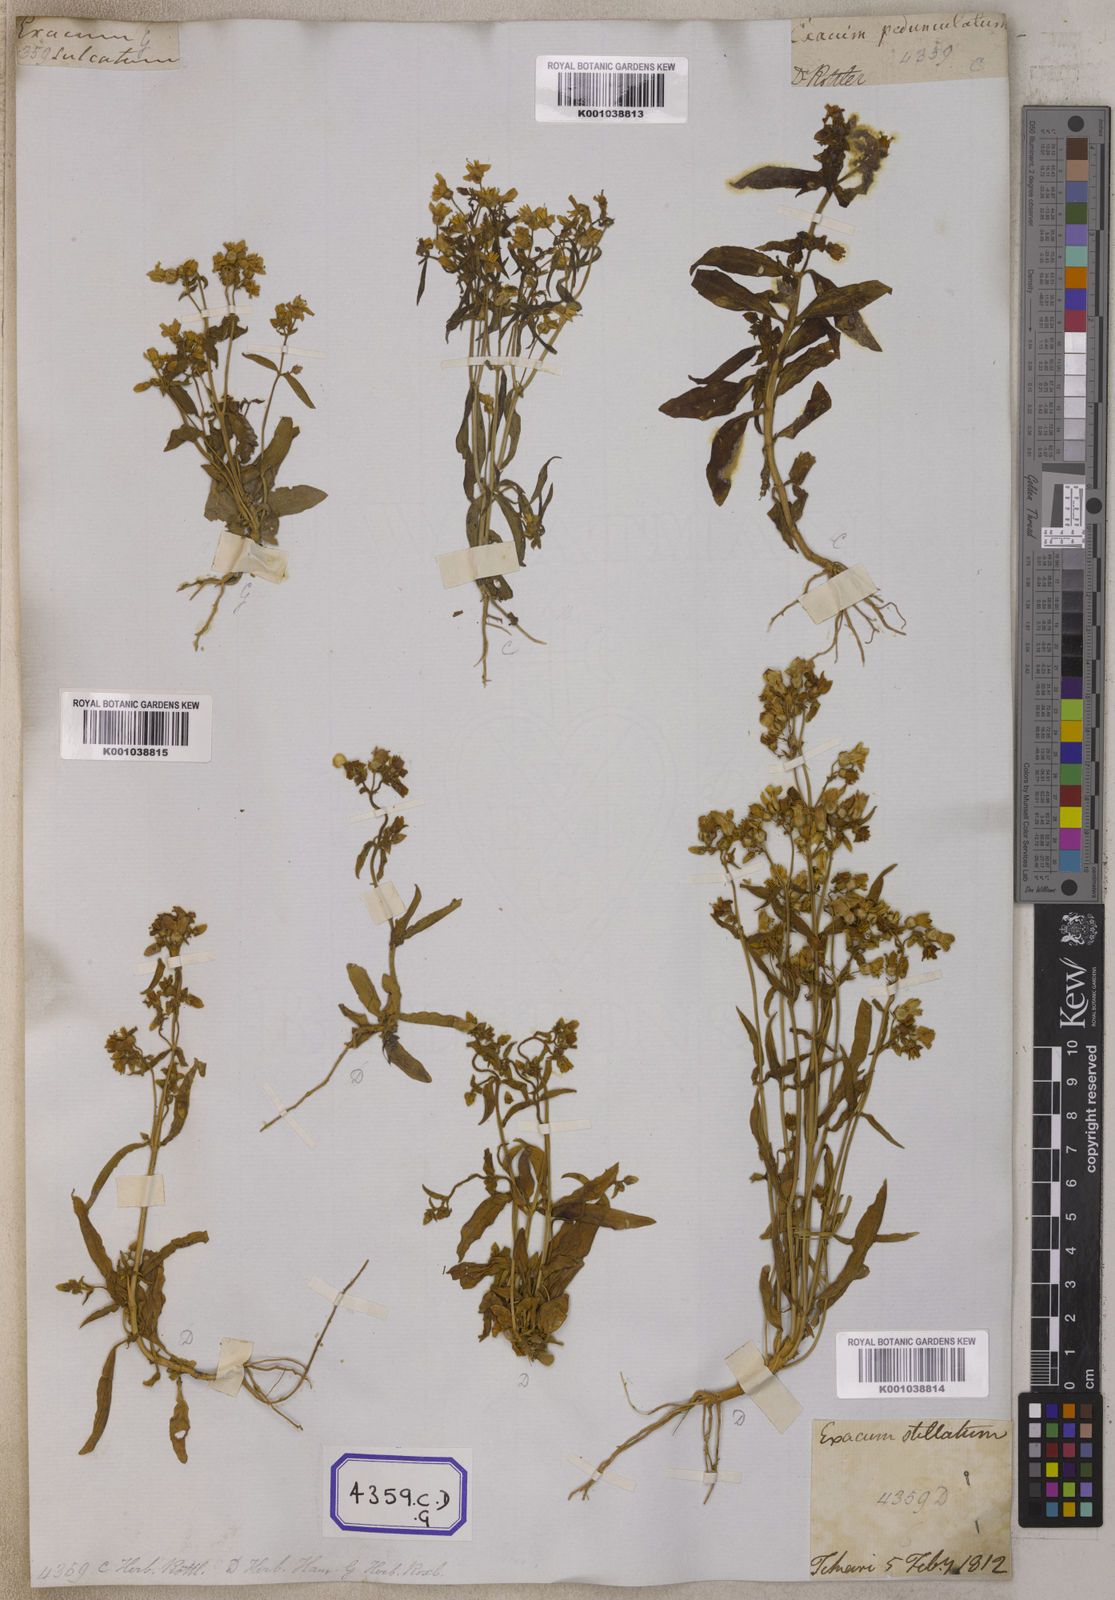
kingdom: Plantae
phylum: Tracheophyta
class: Magnoliopsida
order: Gentianales
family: Gentianaceae
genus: Exacum
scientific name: Exacum pedunculatum
